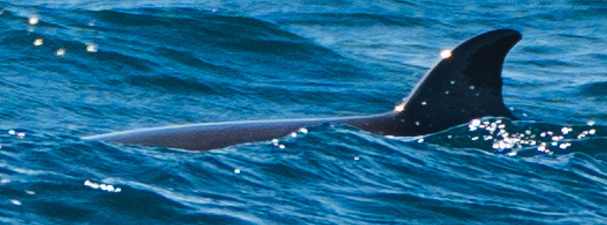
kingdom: Animalia
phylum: Chordata
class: Mammalia
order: Cetacea
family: Balaenopteridae
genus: Balaenoptera
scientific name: Balaenoptera acutorostrata
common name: Common minke whale
